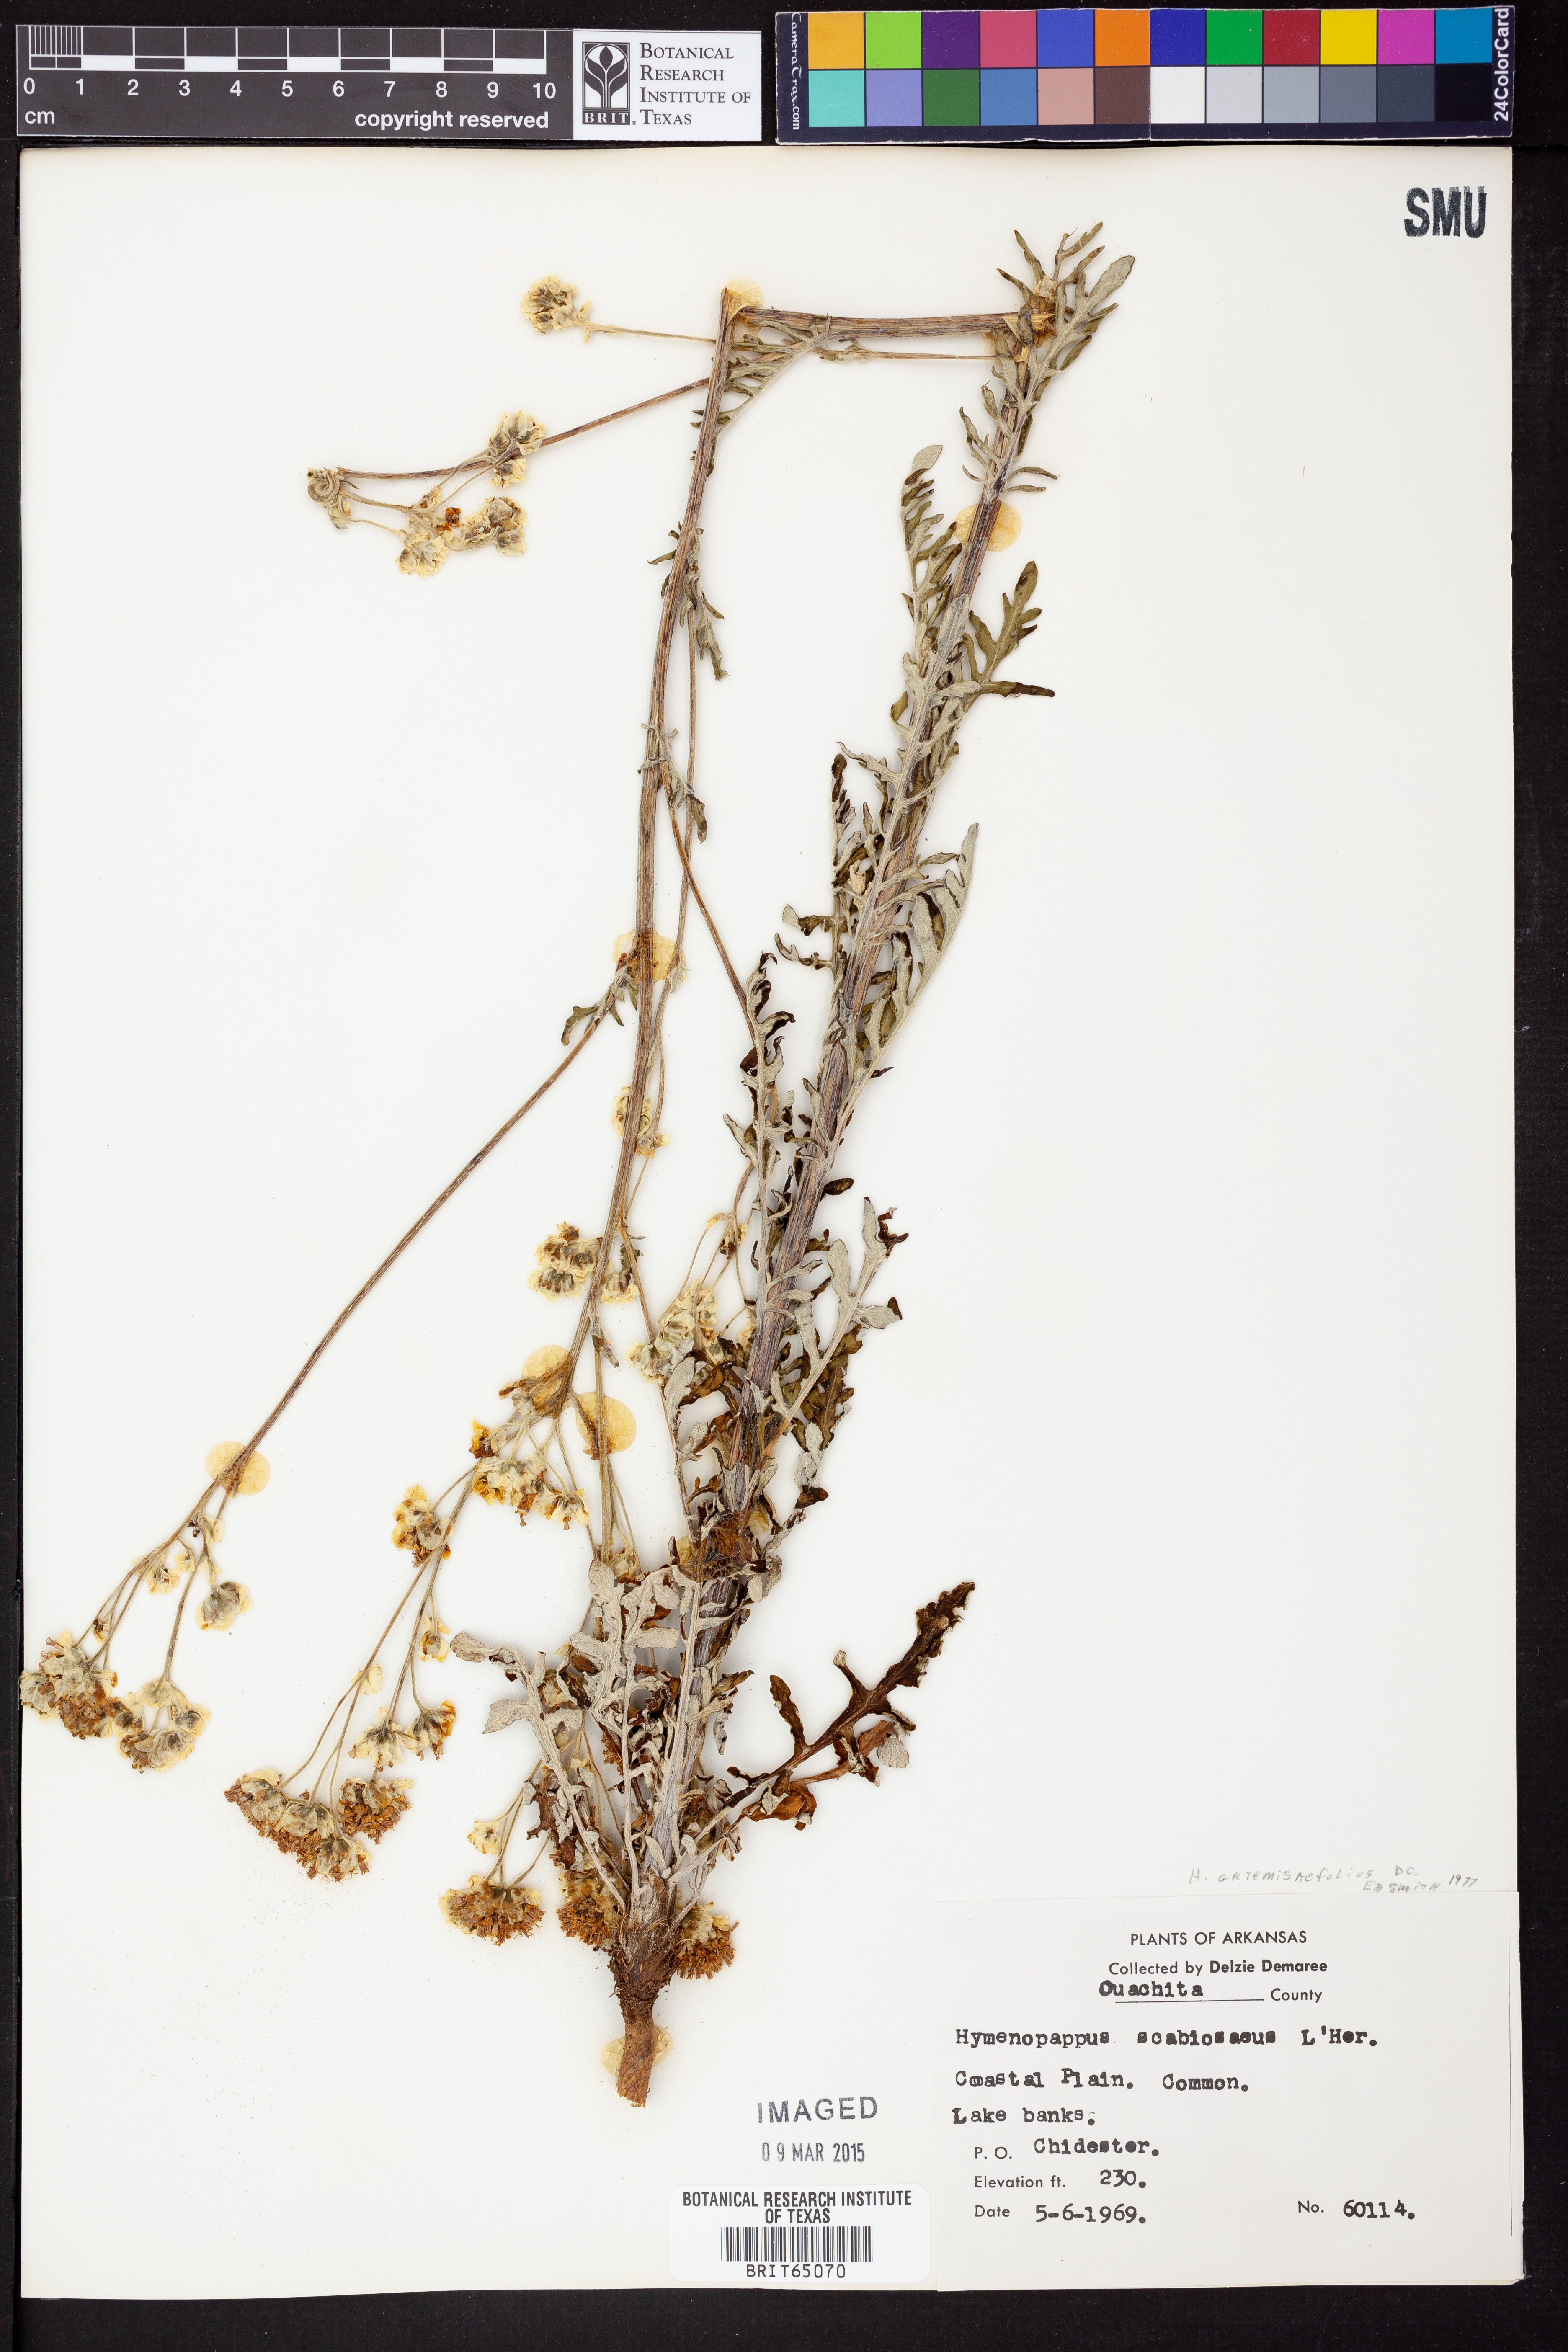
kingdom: Plantae
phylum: Tracheophyta
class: Magnoliopsida
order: Asterales
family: Asteraceae
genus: Hymenopappus
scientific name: Hymenopappus artemisiifolius
